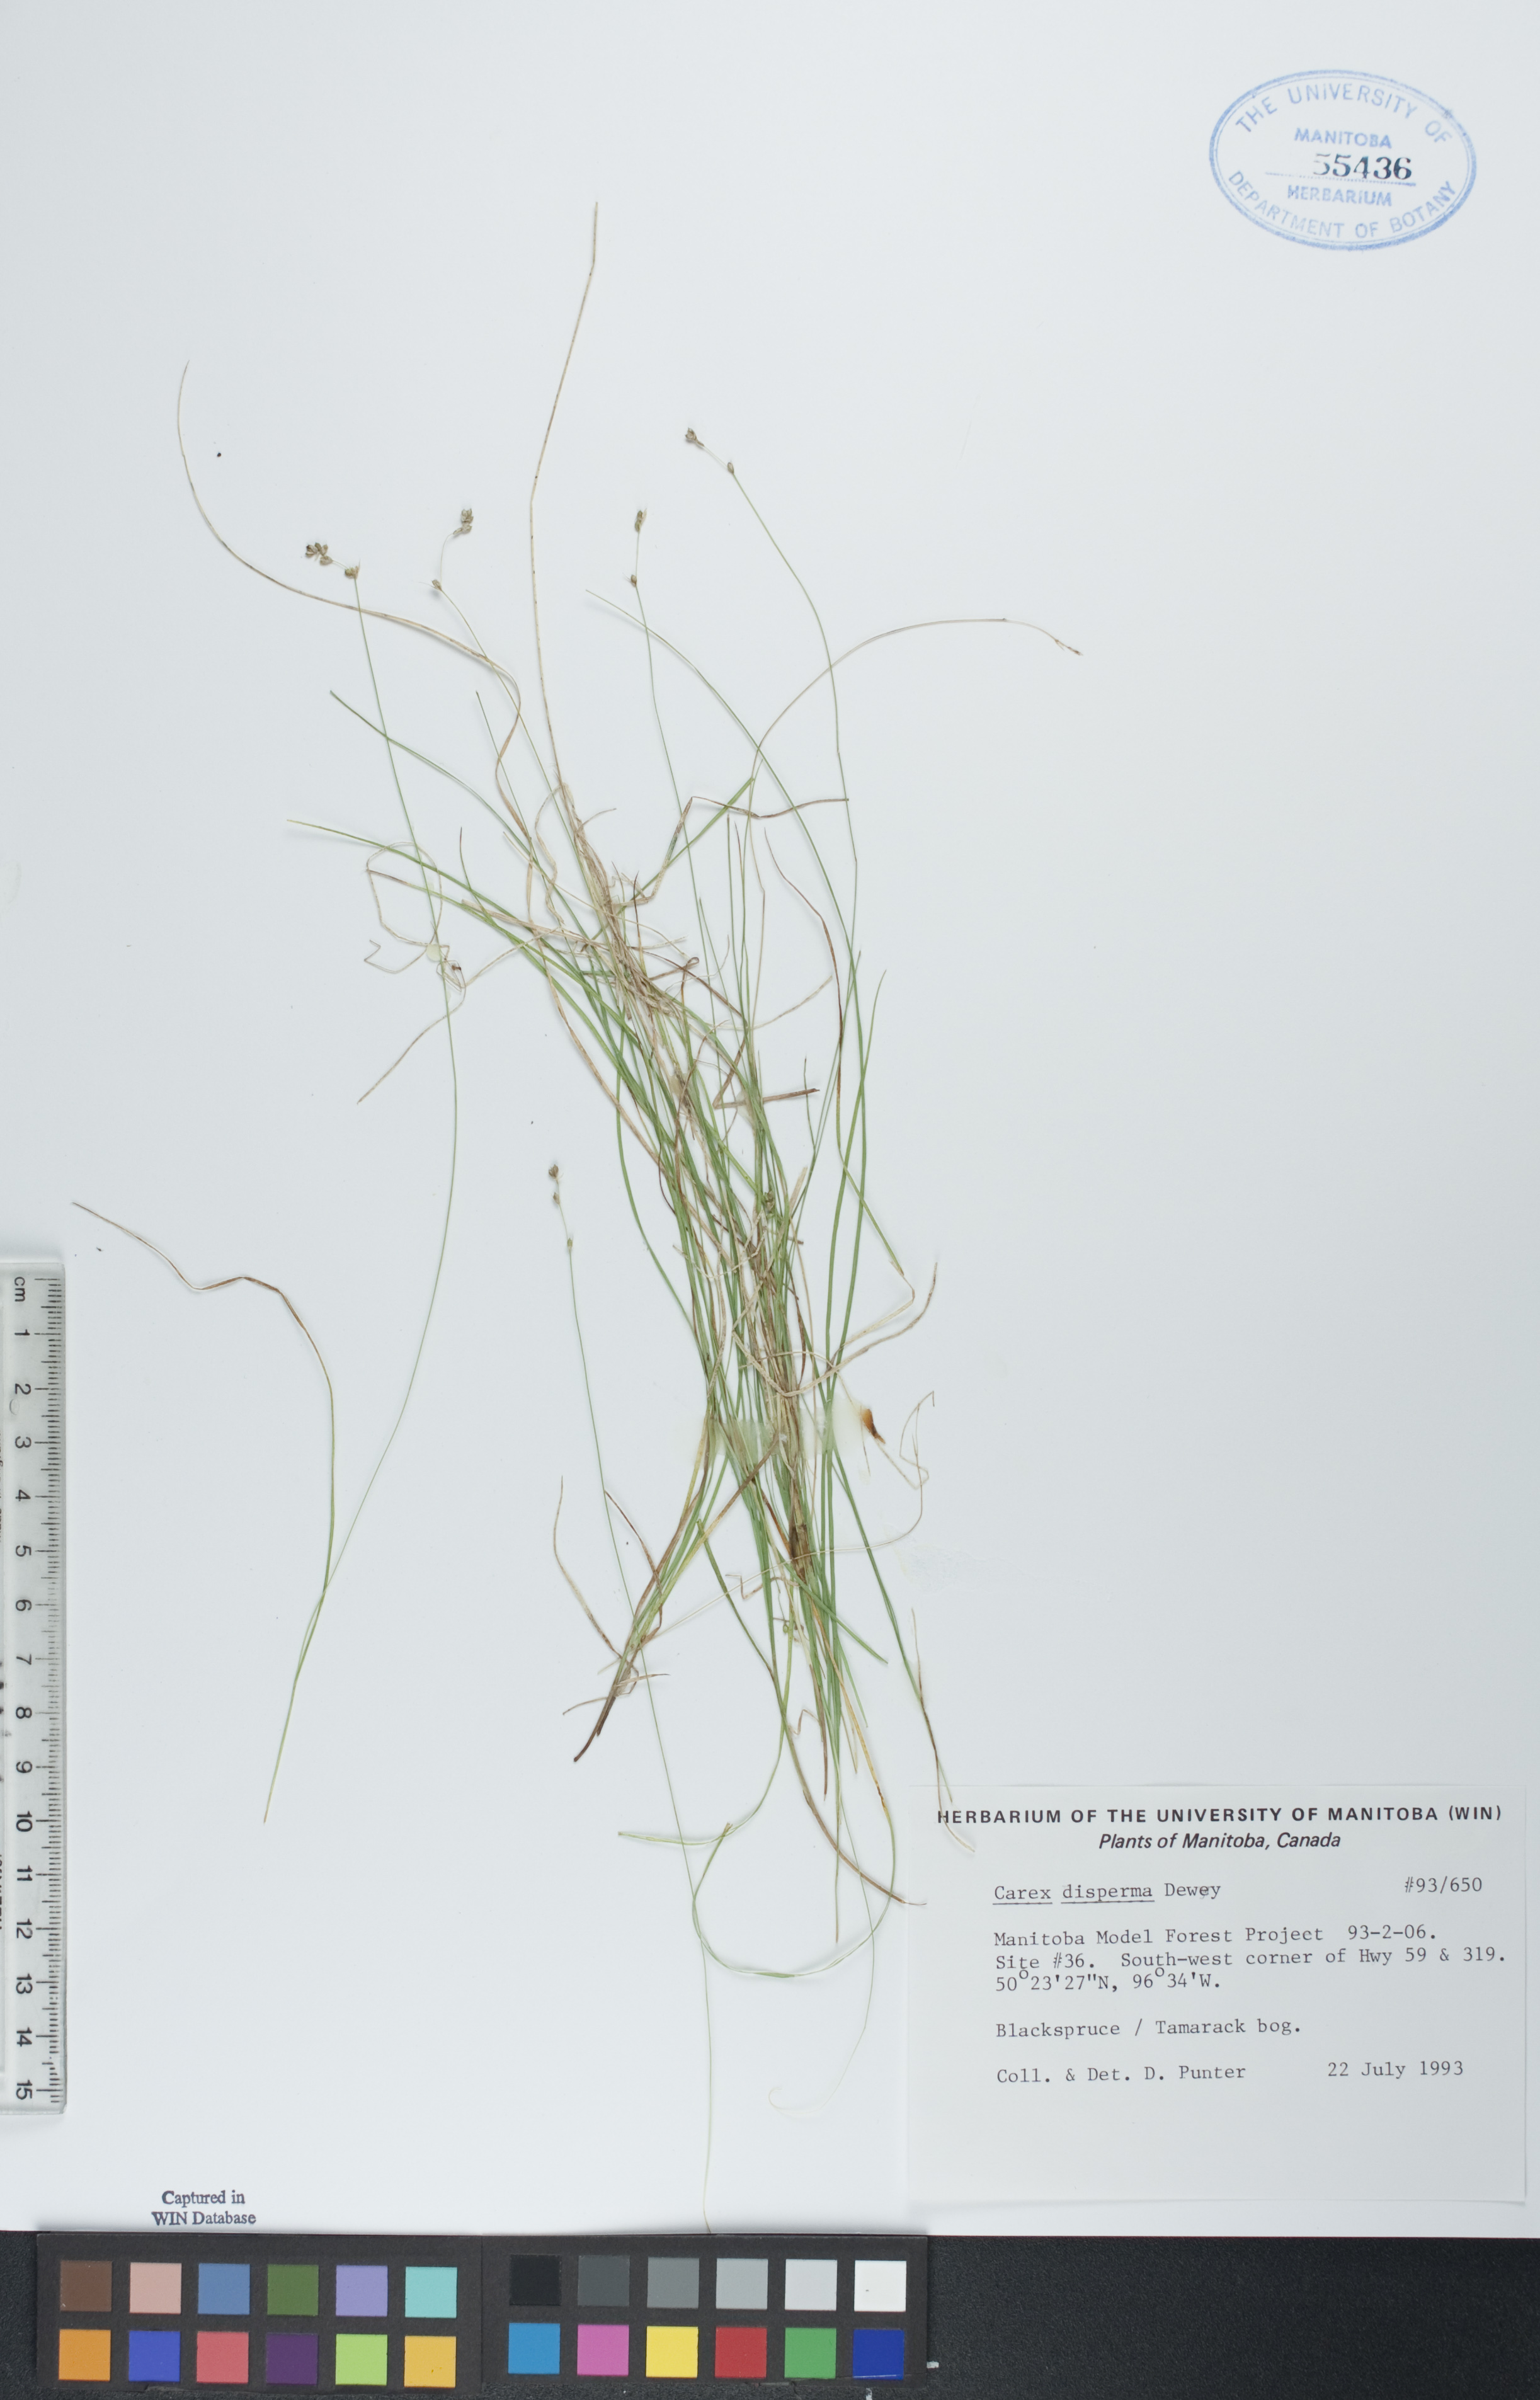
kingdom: Plantae
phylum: Tracheophyta
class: Liliopsida
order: Poales
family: Cyperaceae
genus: Carex
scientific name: Carex disperma
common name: Short-leaved sedge
